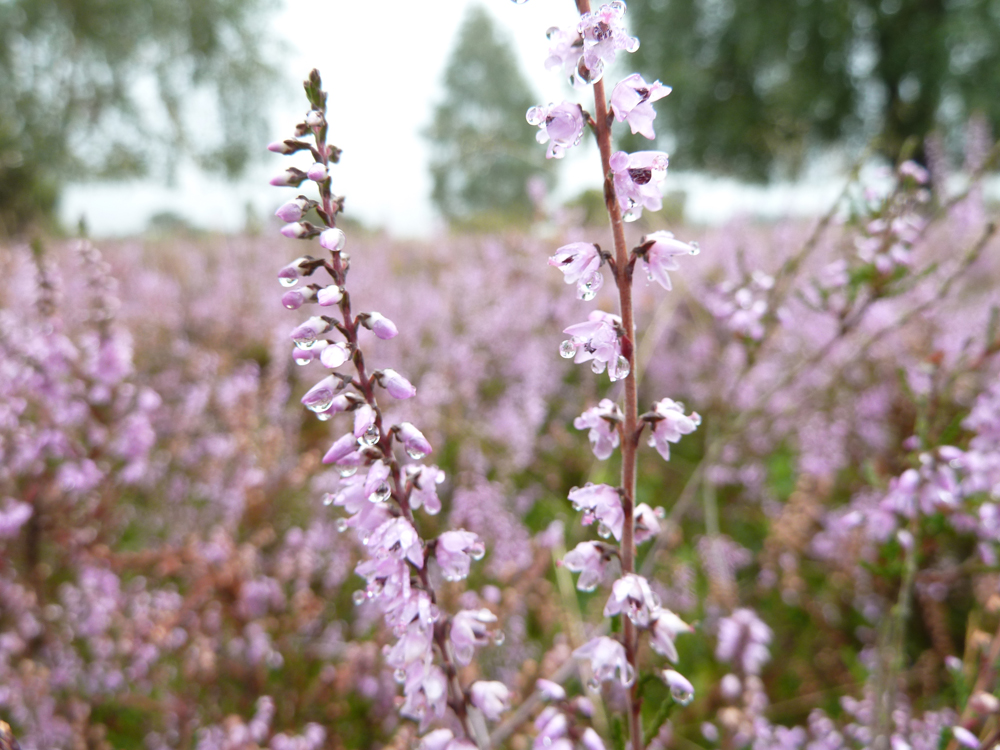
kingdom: Plantae
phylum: Tracheophyta
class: Magnoliopsida
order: Ericales
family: Ericaceae
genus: Calluna
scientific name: Calluna vulgaris
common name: Heather
